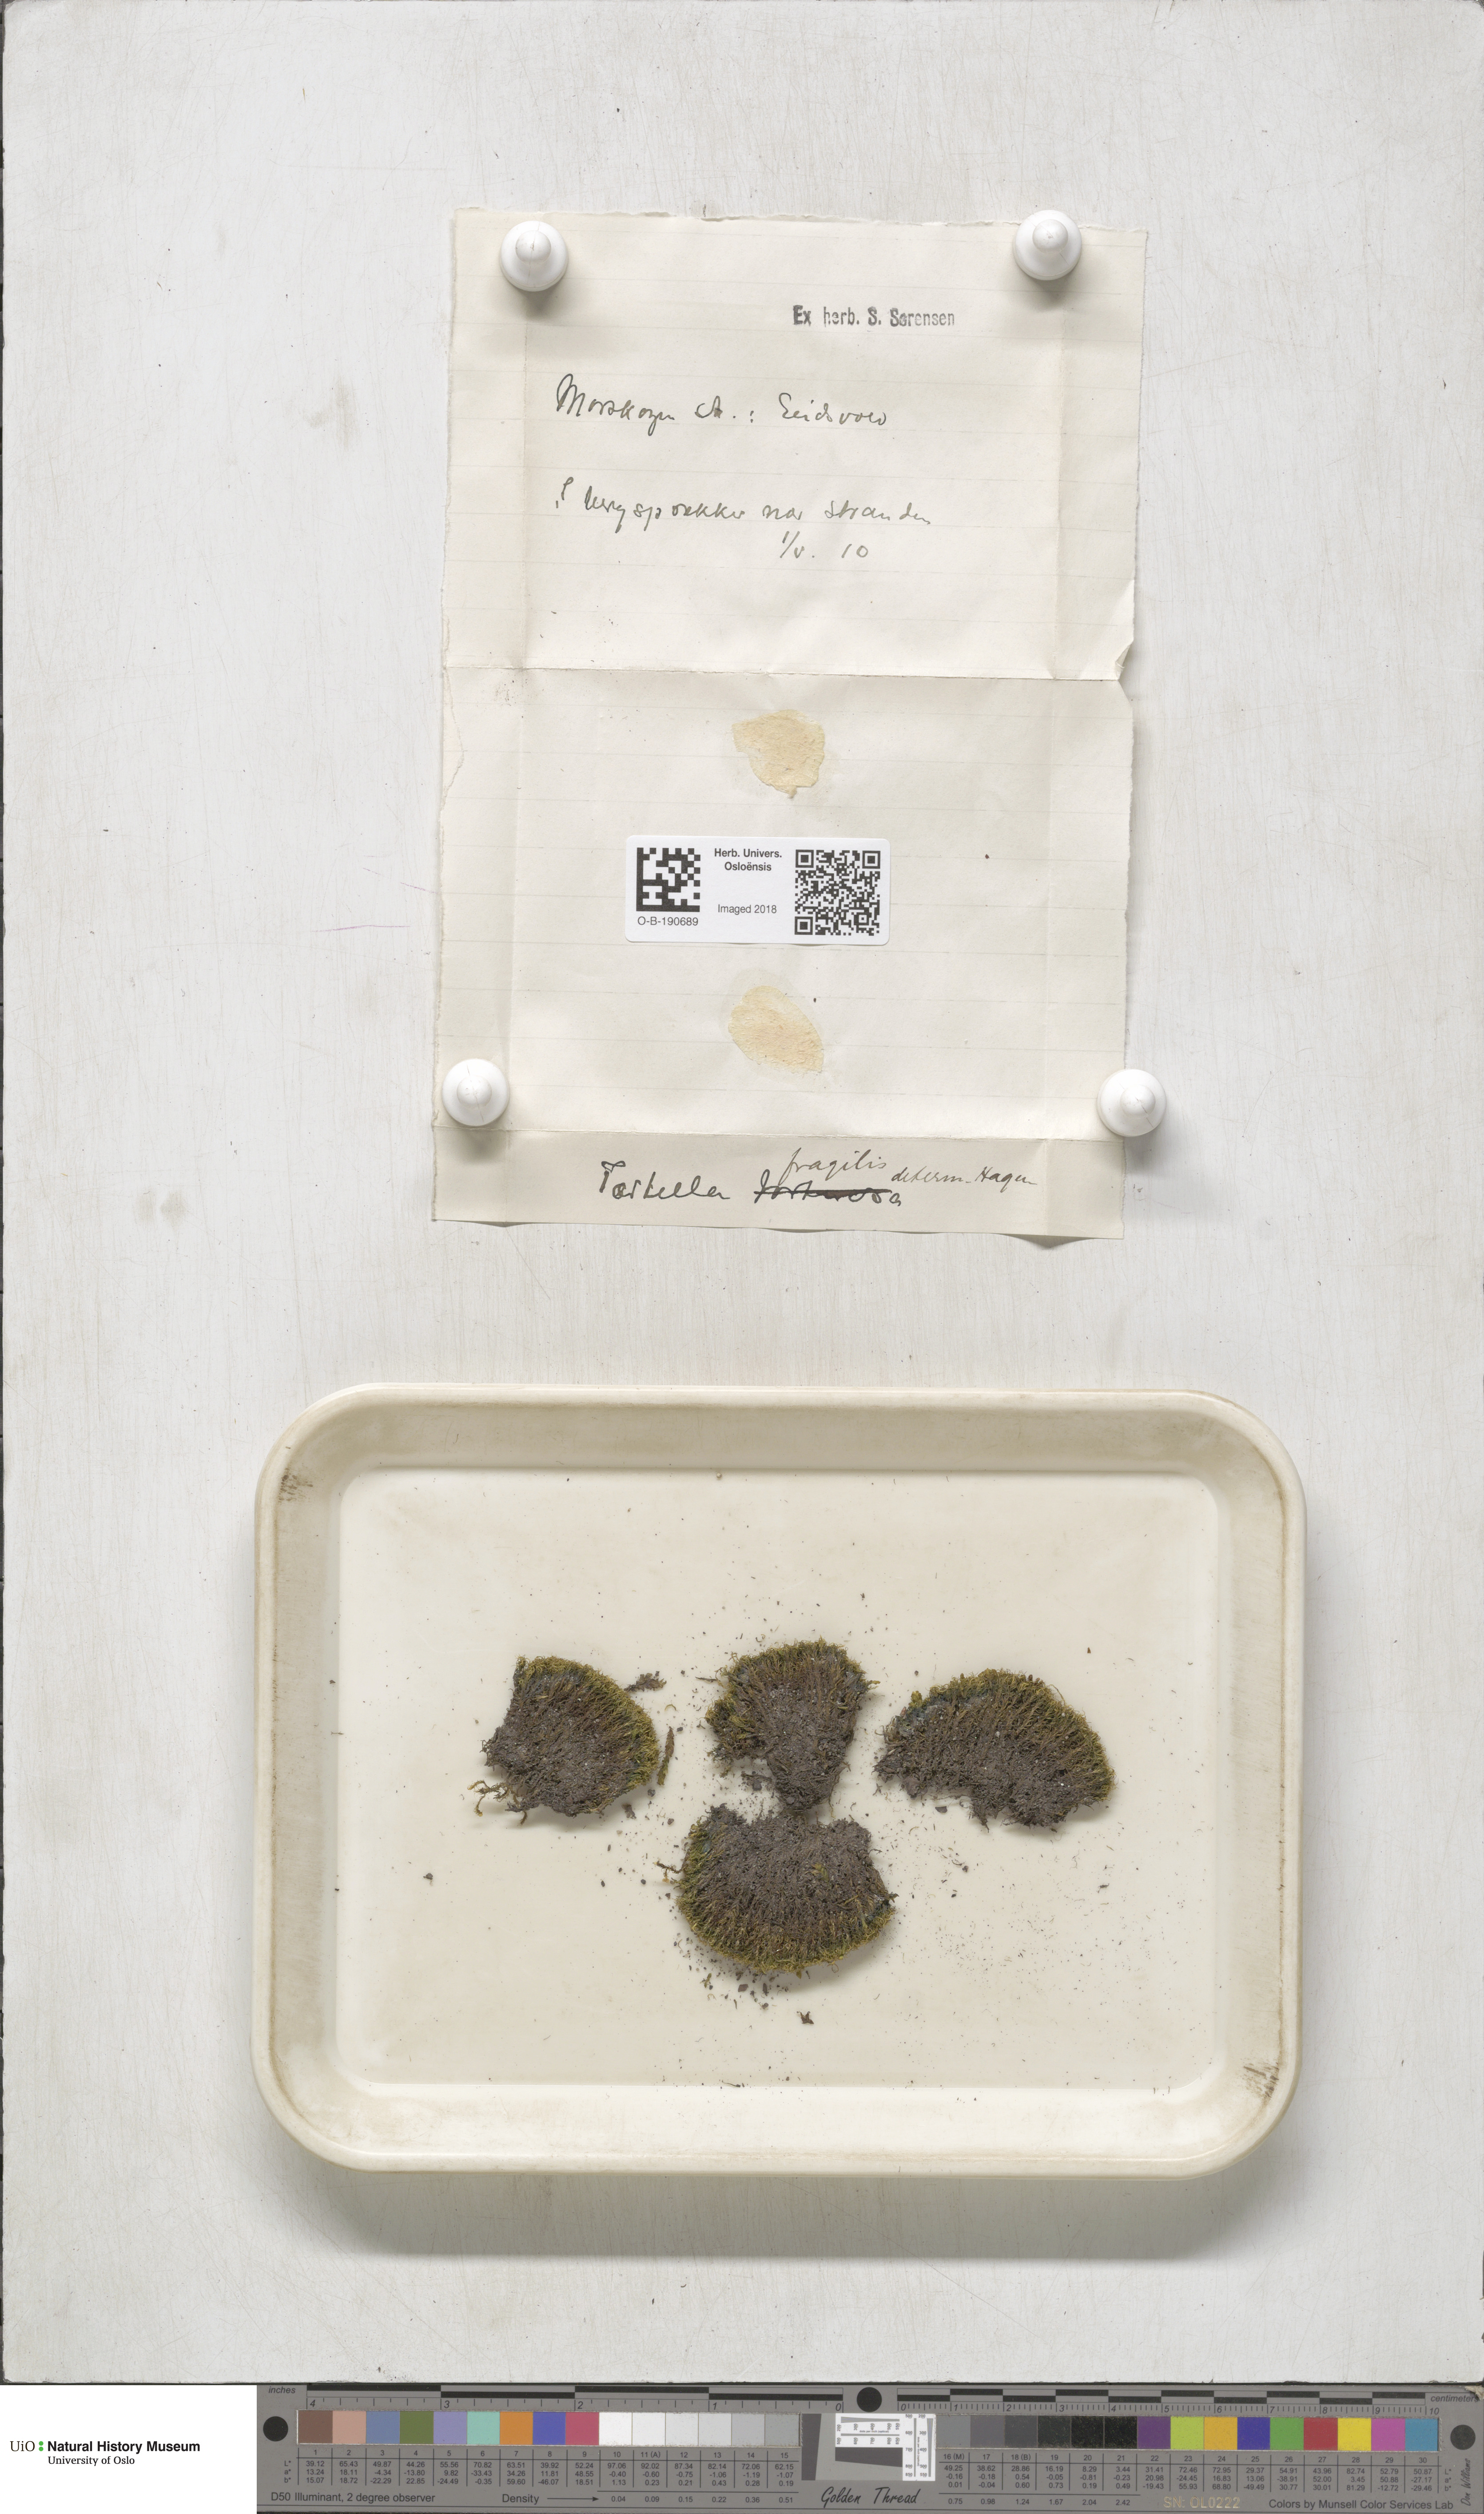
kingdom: Plantae
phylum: Bryophyta
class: Bryopsida
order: Pottiales
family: Pottiaceae
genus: Tortella
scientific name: Tortella fragilis
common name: Fragile twisted moss
